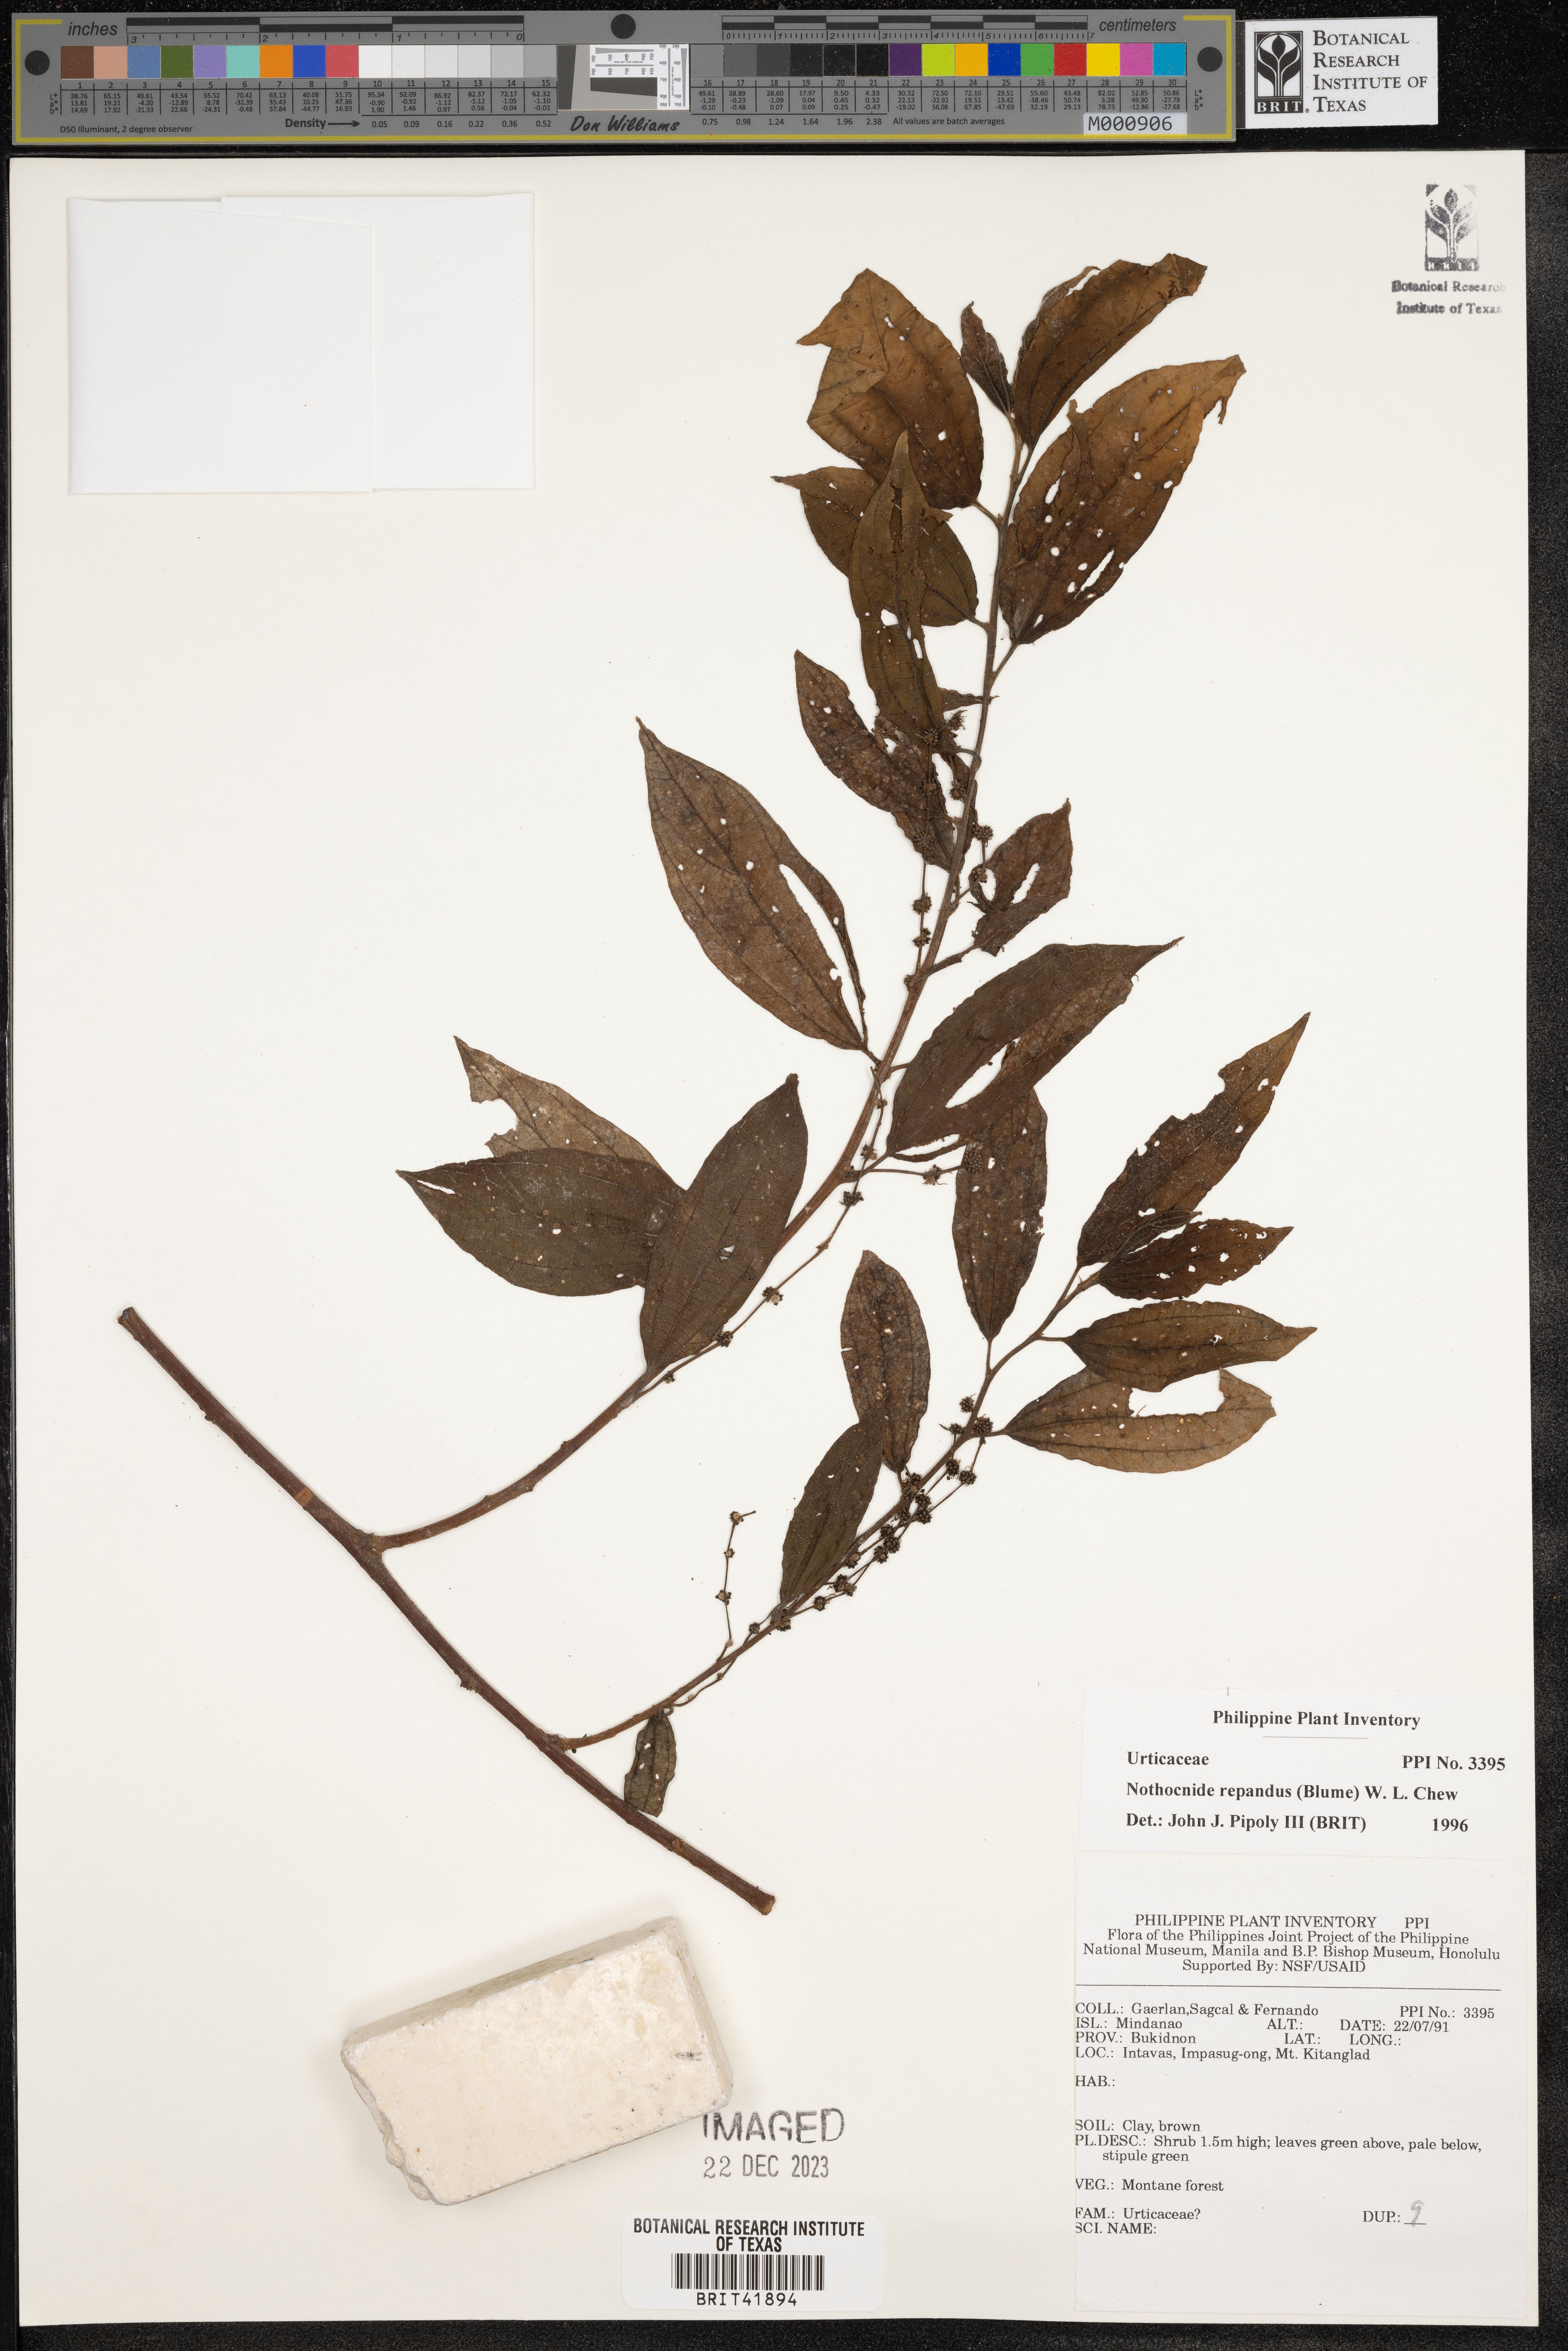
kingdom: Plantae
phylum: Tracheophyta
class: Magnoliopsida
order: Rosales
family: Urticaceae
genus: Nothocnide
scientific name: Nothocnide repanda
